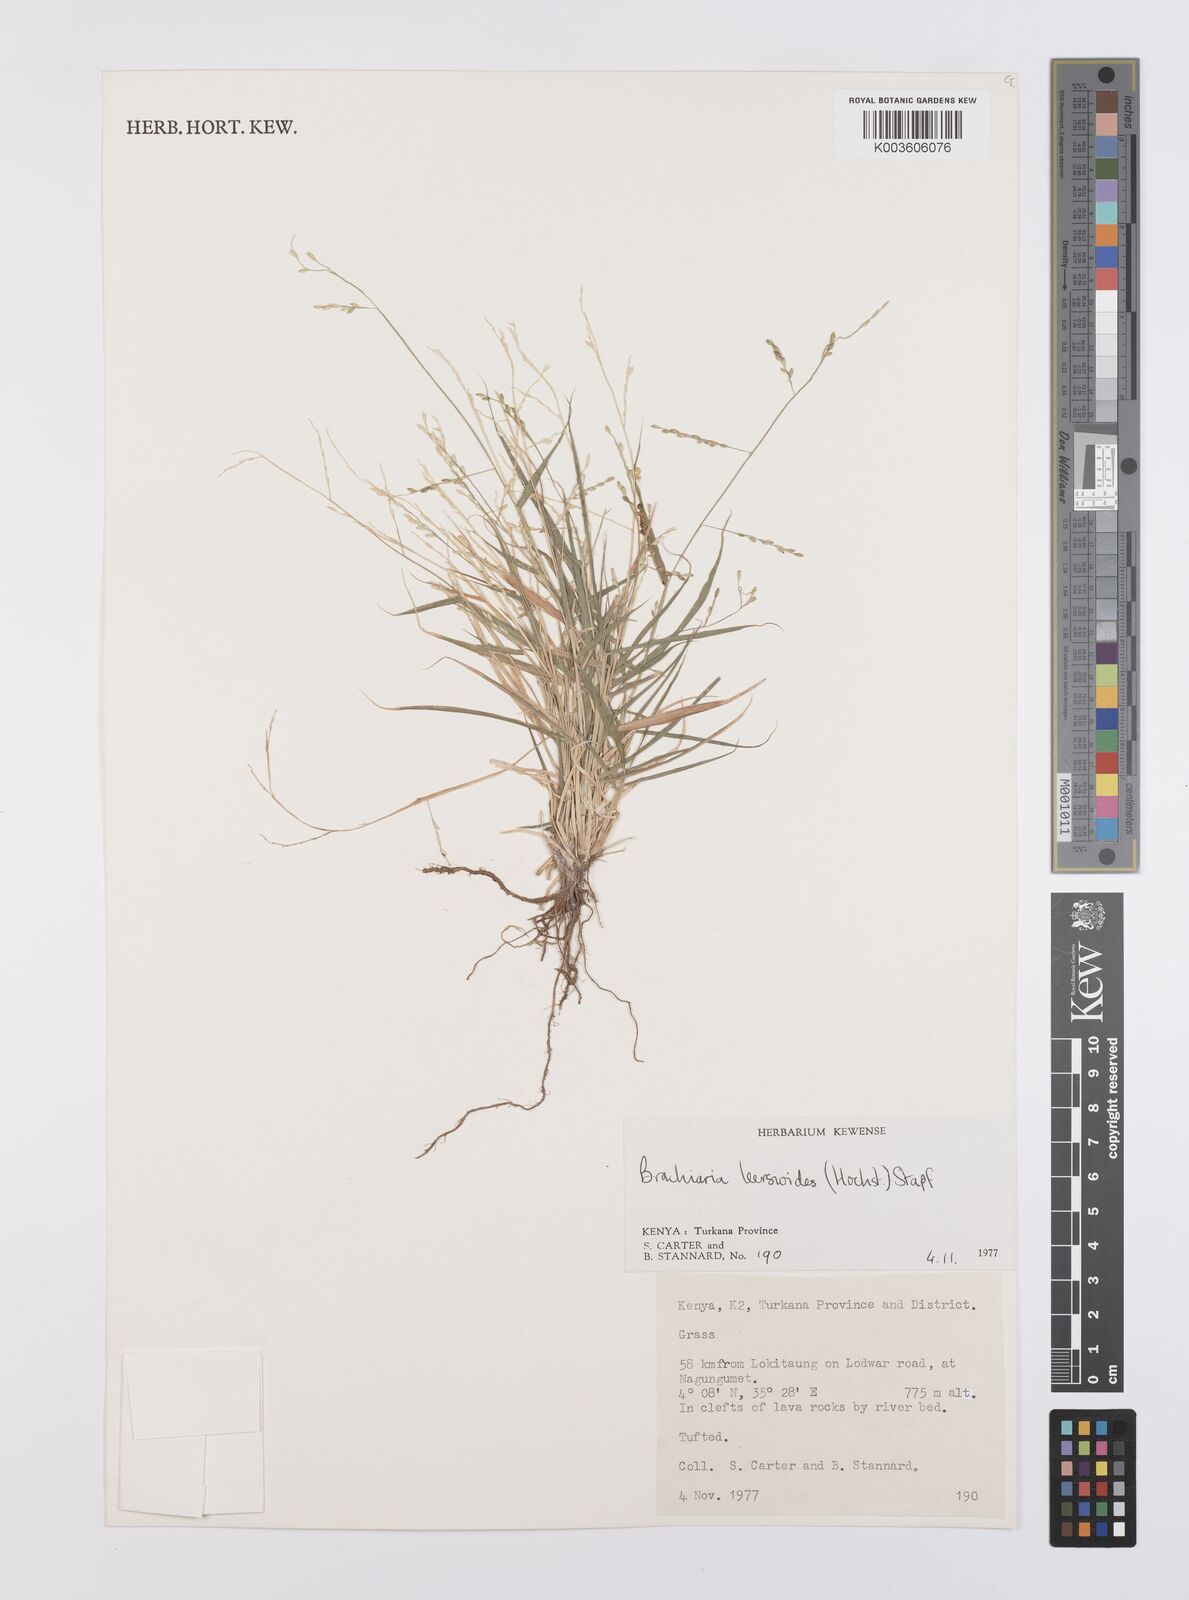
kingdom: Plantae
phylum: Tracheophyta
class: Liliopsida
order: Poales
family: Poaceae
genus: Urochloa
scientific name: Urochloa leersioides
